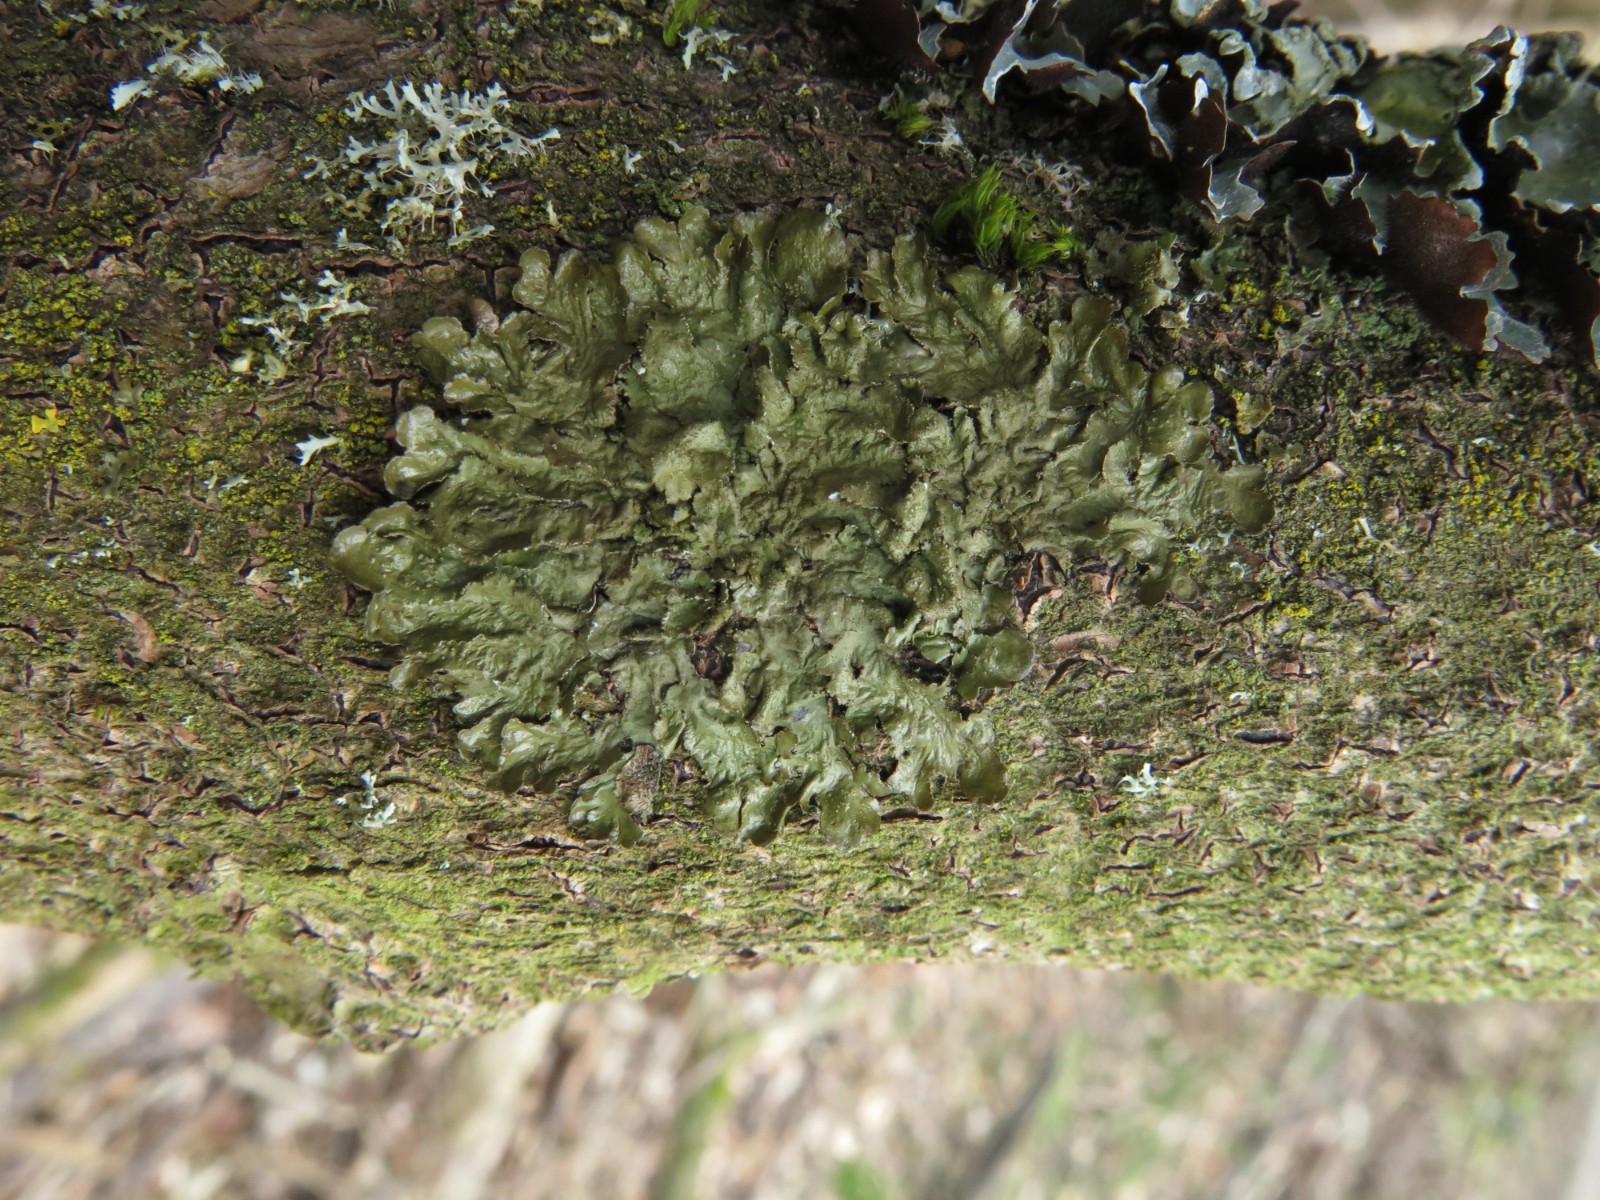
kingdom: Fungi
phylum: Ascomycota
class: Lecanoromycetes
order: Lecanorales
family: Parmeliaceae
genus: Melanelixia
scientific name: Melanelixia subaurifera
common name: guldpudret skållav
